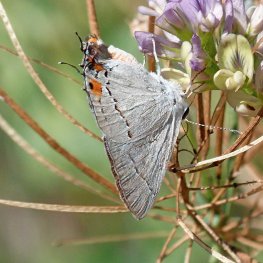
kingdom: Animalia
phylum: Arthropoda
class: Insecta
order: Lepidoptera
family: Lycaenidae
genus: Strymon
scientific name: Strymon melinus
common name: Gray Hairstreak
